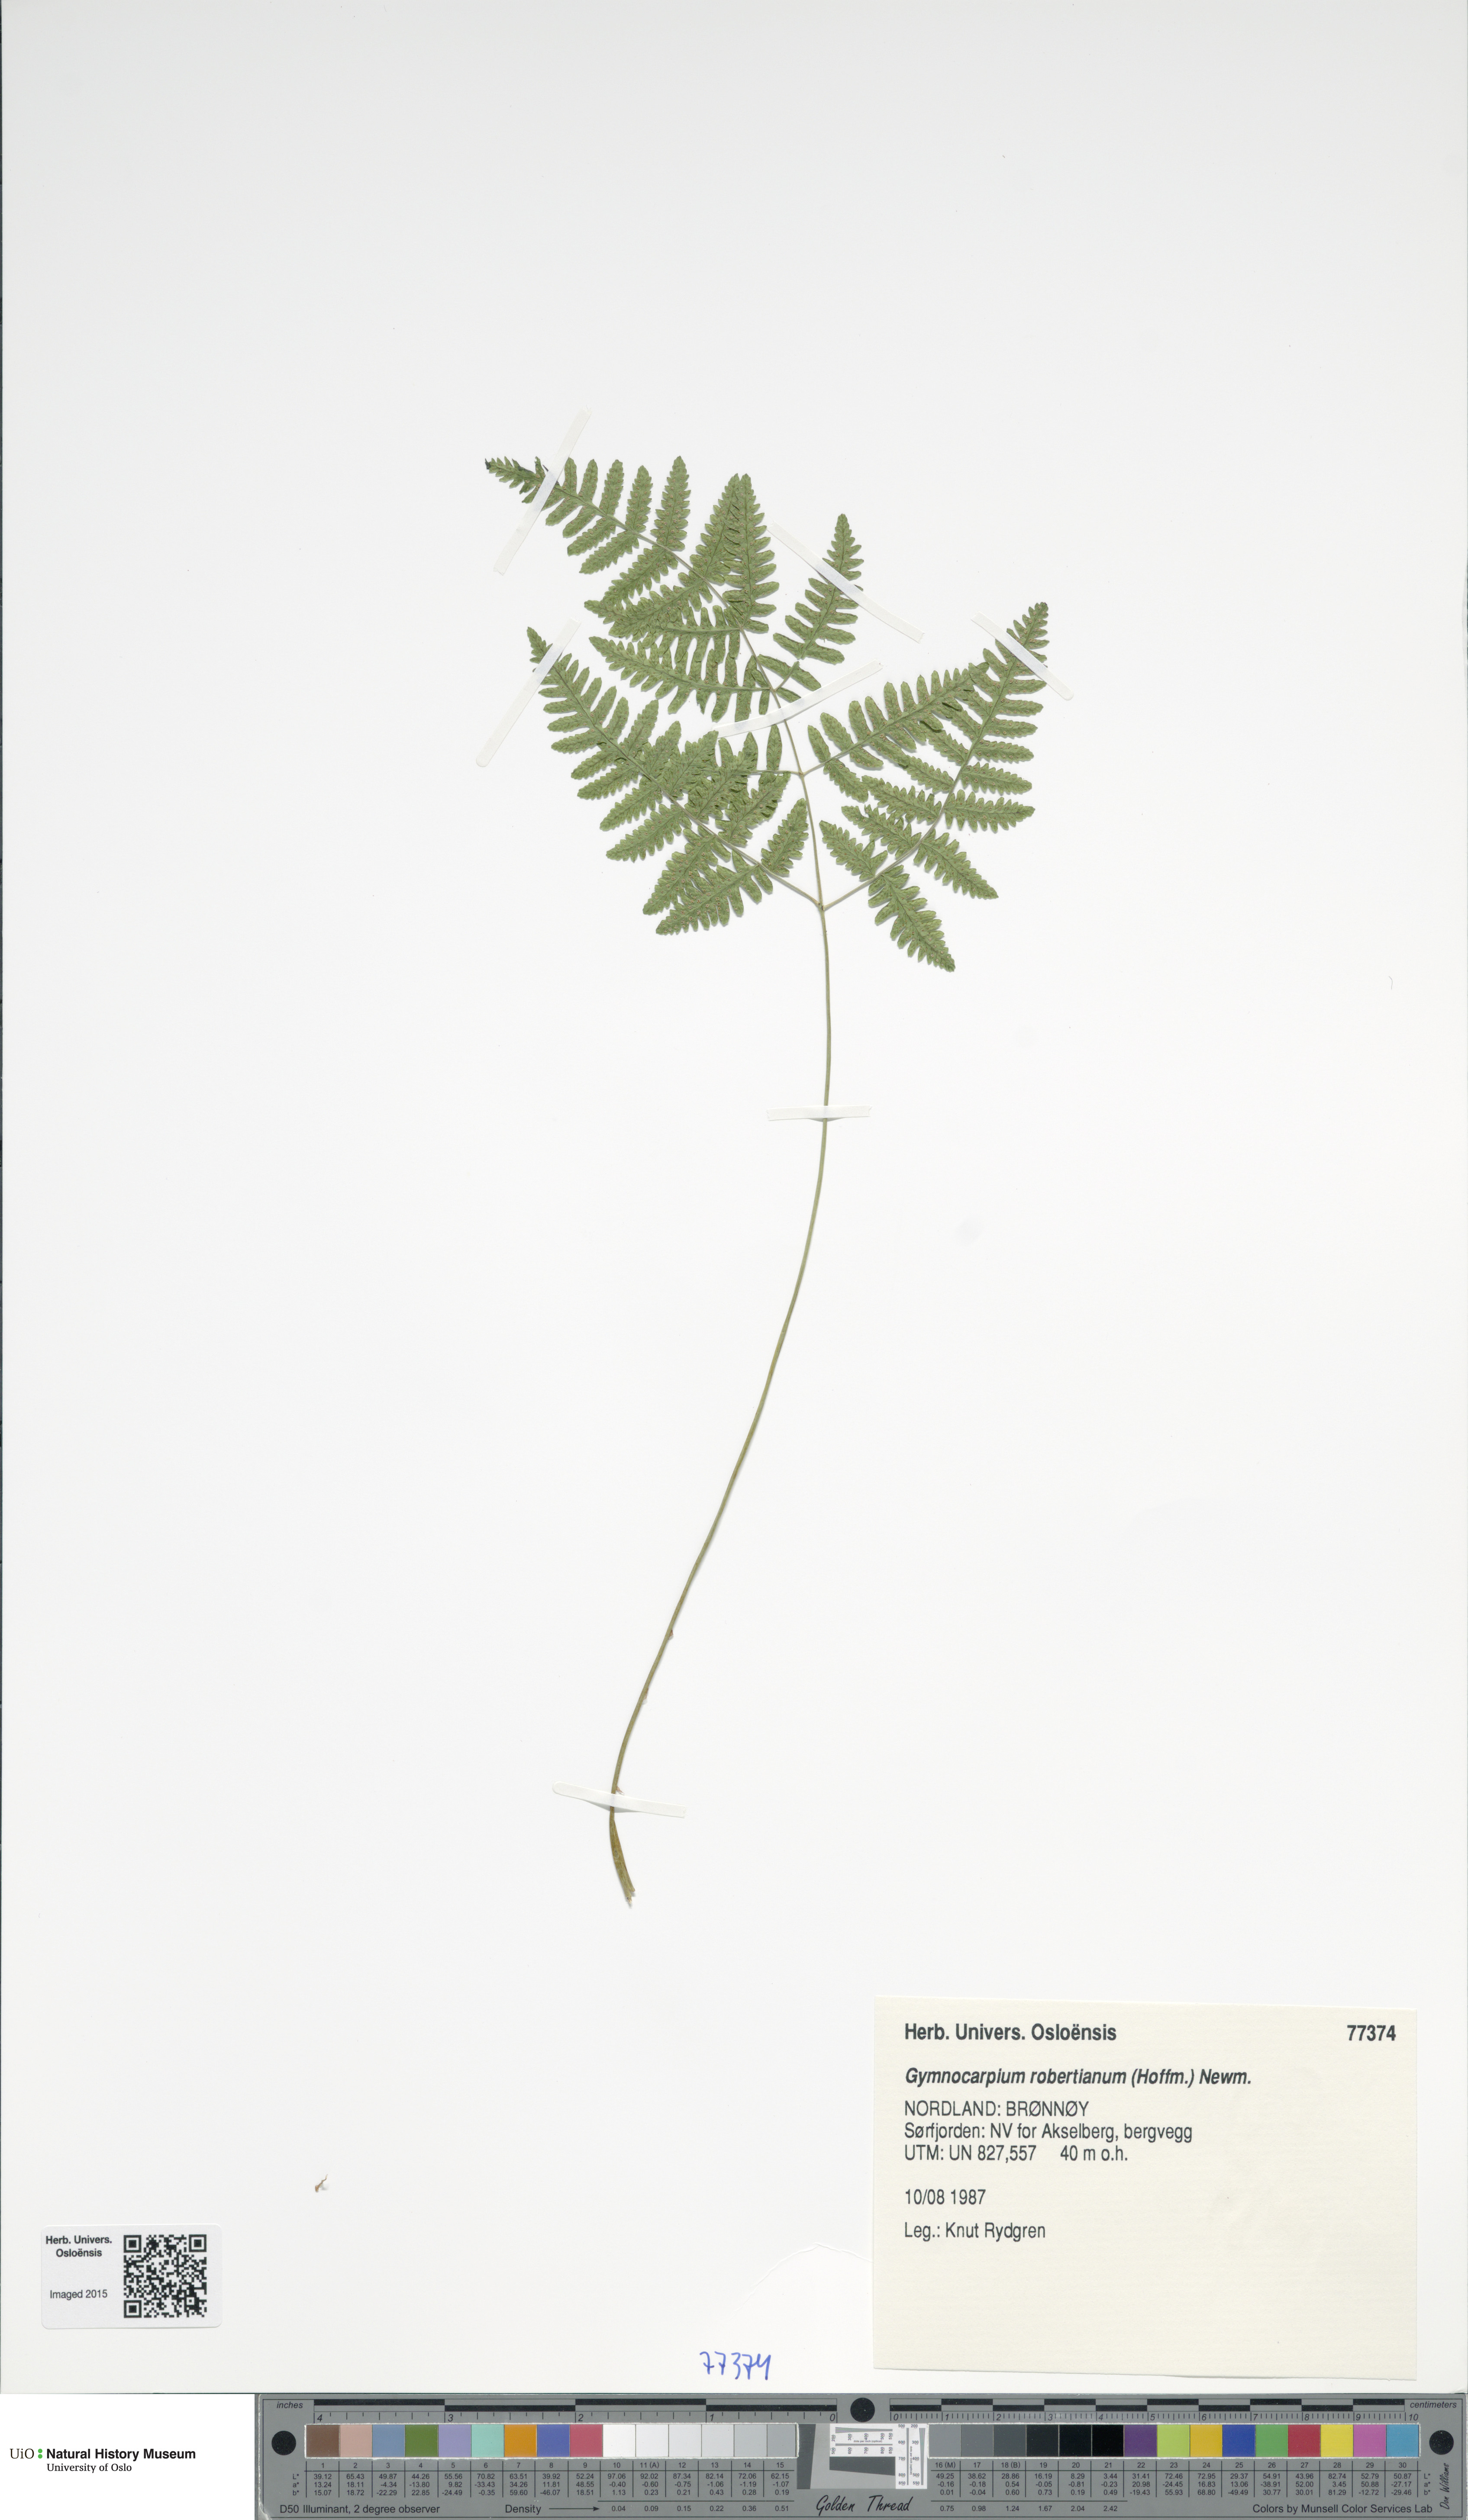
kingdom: Plantae
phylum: Tracheophyta
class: Polypodiopsida
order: Polypodiales
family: Cystopteridaceae
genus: Gymnocarpium
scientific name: Gymnocarpium robertianum
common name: Limestone fern
